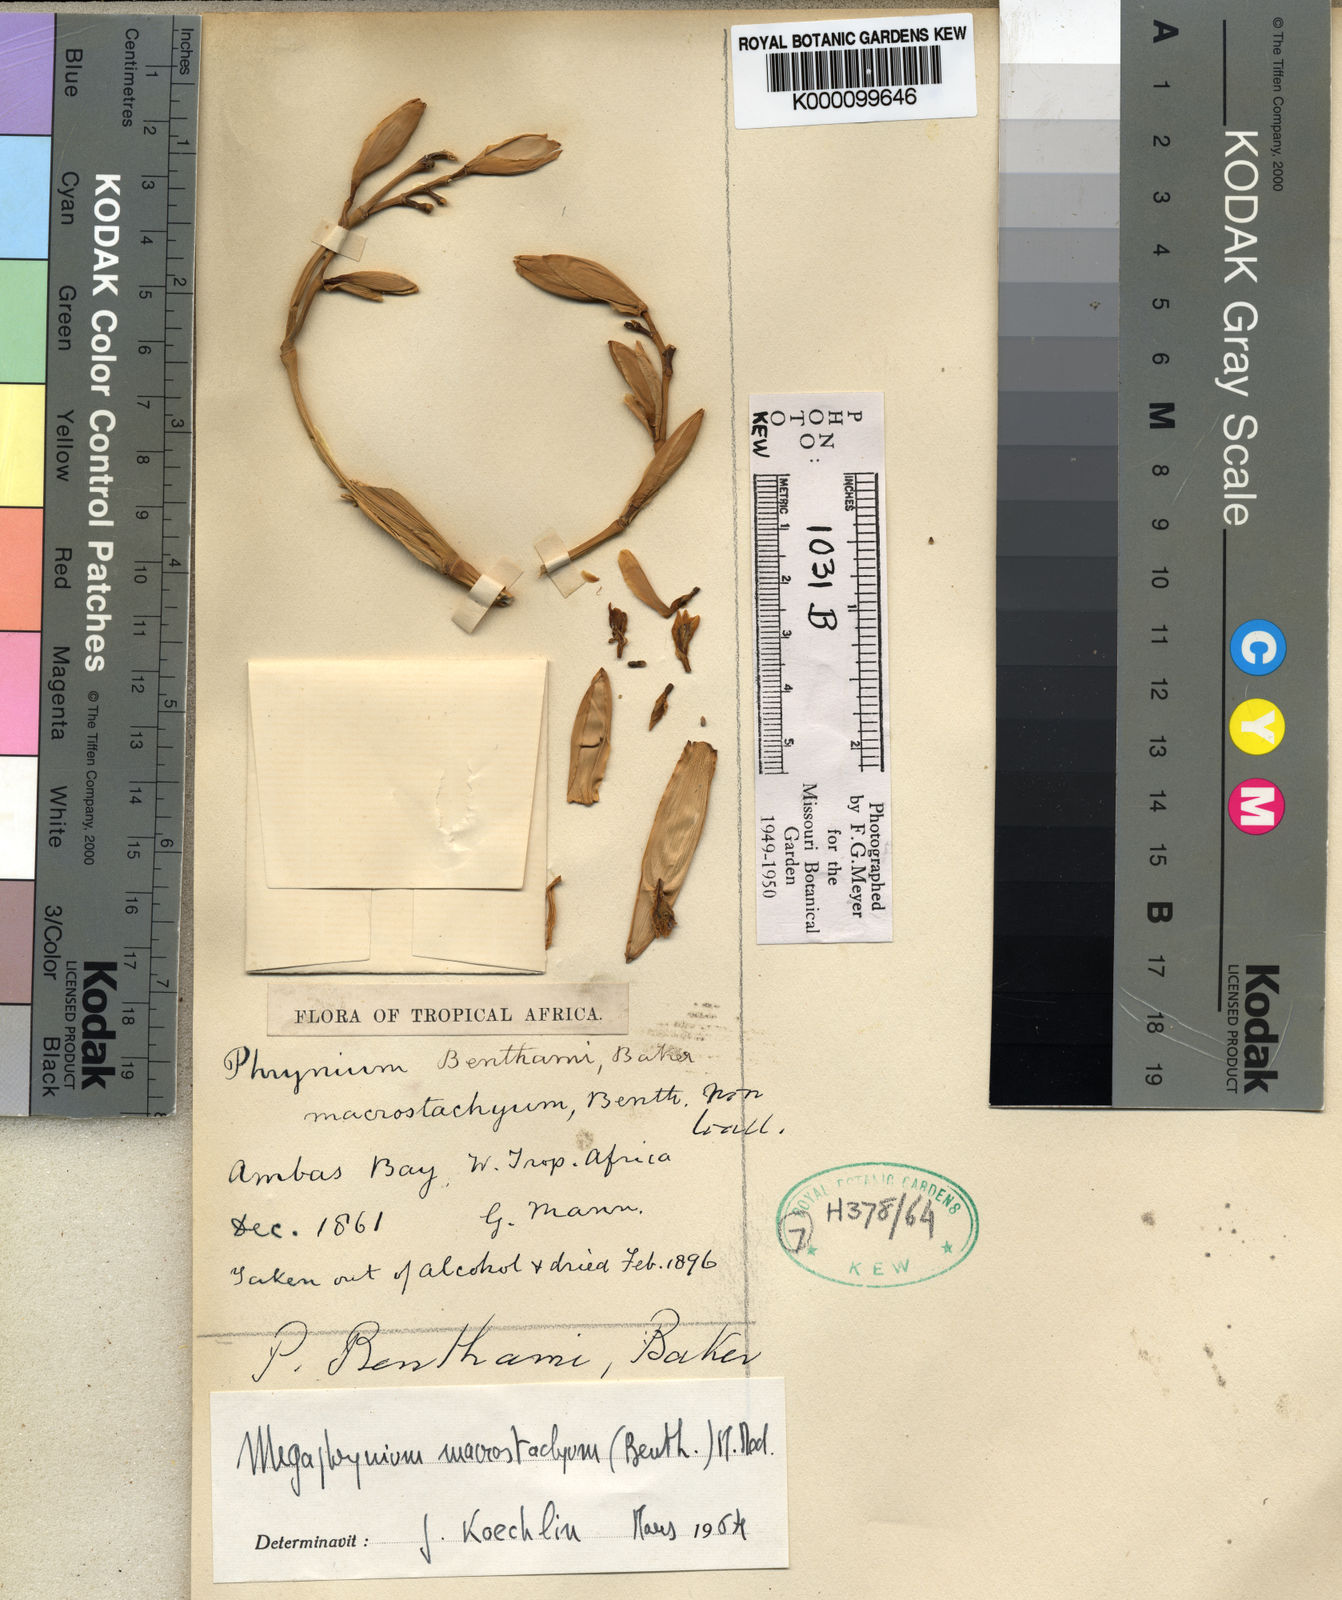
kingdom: Plantae
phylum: Tracheophyta
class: Liliopsida
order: Zingiberales
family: Marantaceae
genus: Megaphrynium
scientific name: Megaphrynium macrostachyum
